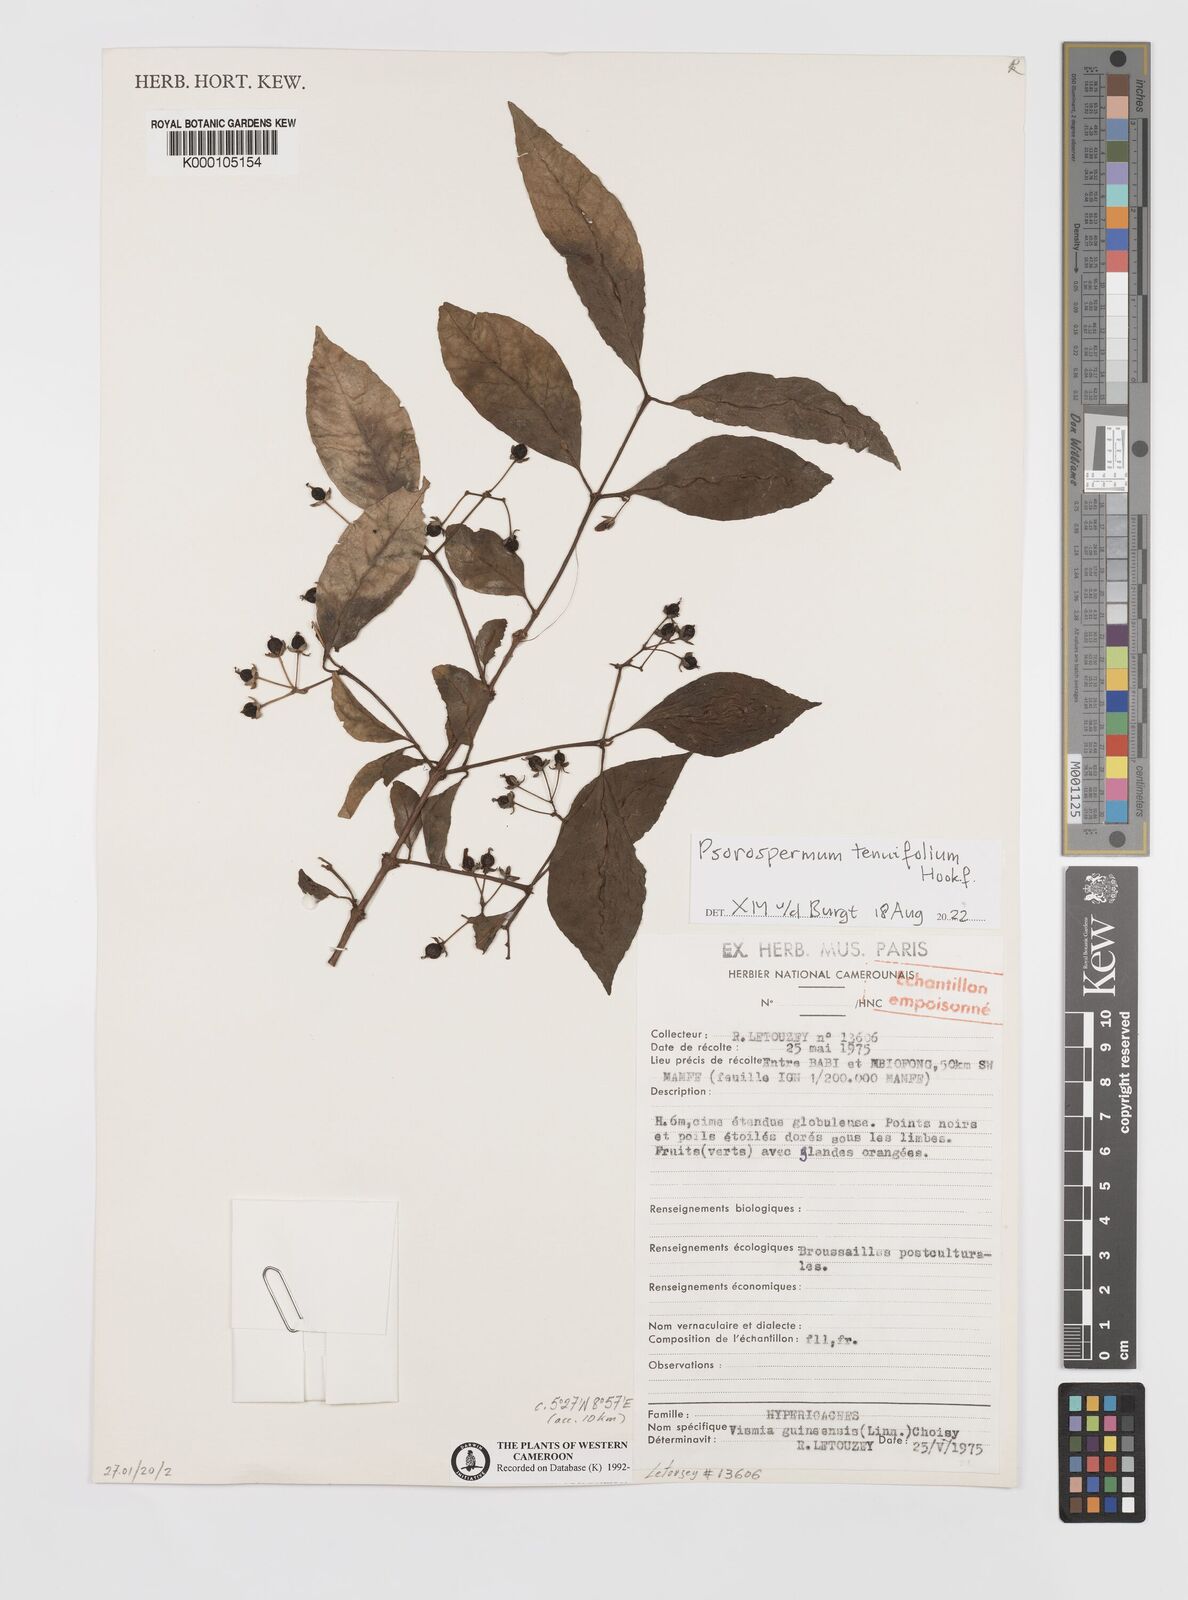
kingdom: Plantae
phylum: Tracheophyta
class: Magnoliopsida
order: Malpighiales
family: Hypericaceae
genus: Psorospermum
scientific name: Psorospermum guineense
